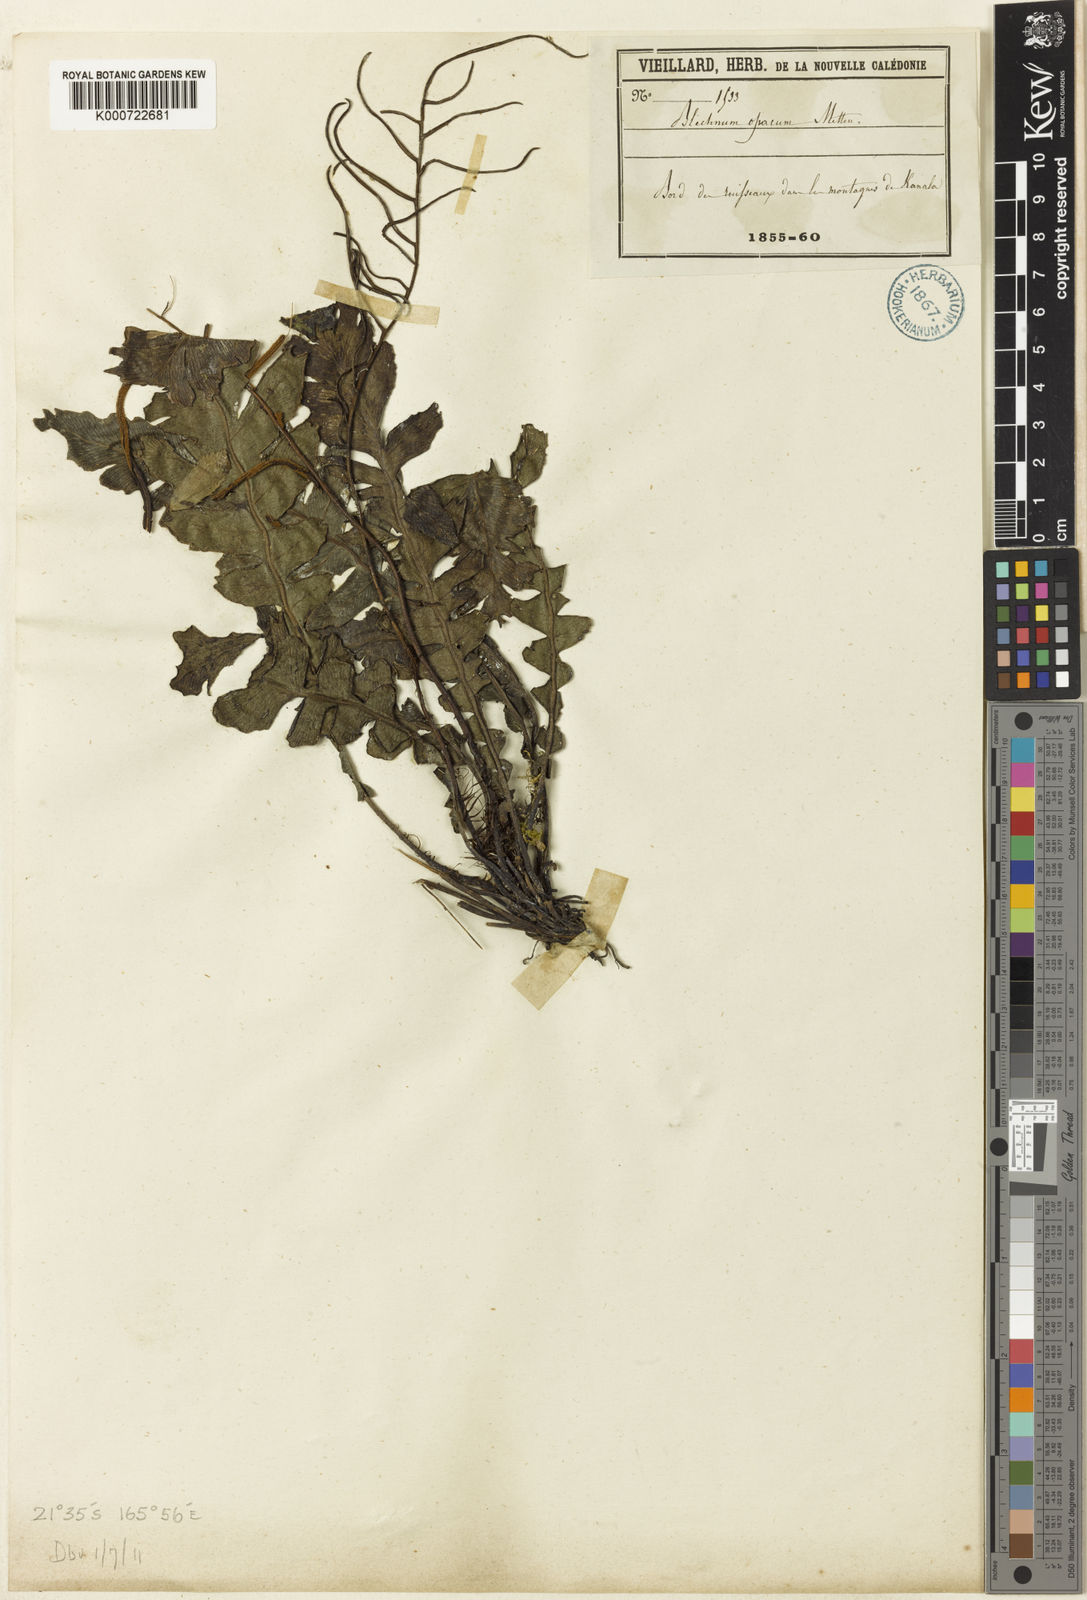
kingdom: Plantae
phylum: Tracheophyta
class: Polypodiopsida
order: Polypodiales
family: Blechnaceae
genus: Cranfillia
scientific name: Cranfillia opaca
